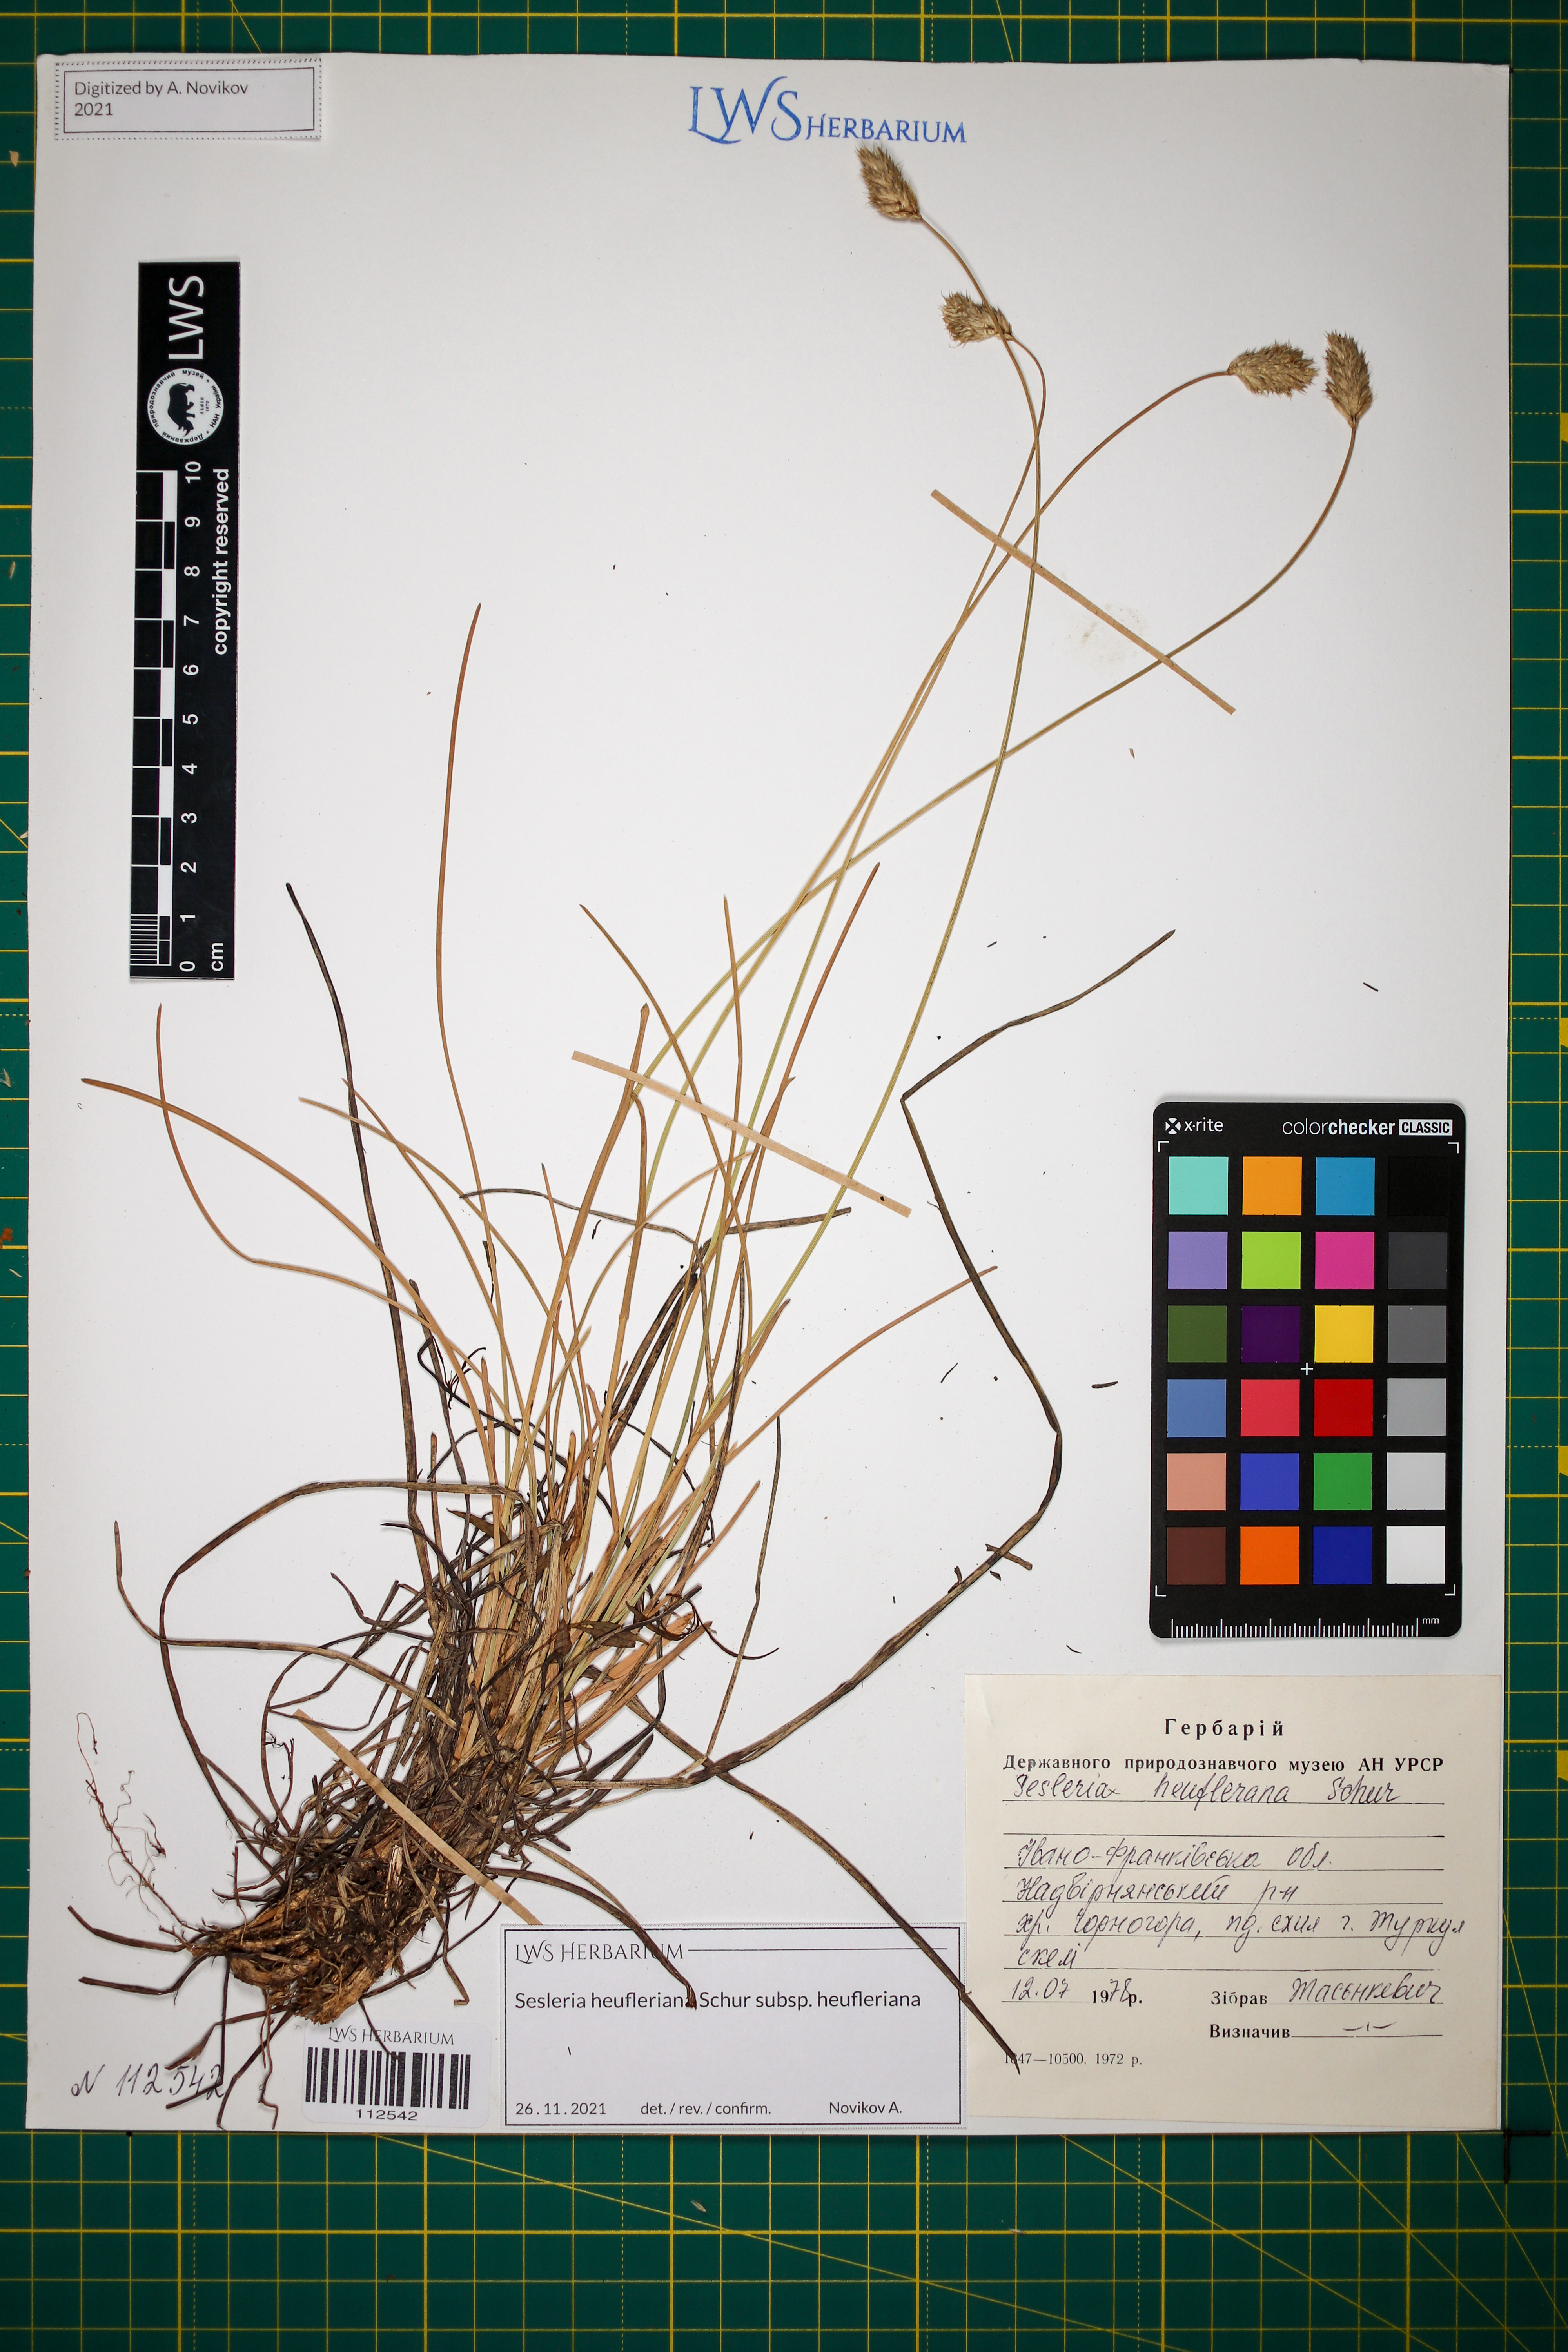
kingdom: Plantae
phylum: Tracheophyta
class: Liliopsida
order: Poales
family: Poaceae
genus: Sesleria
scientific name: Sesleria heufleriana
